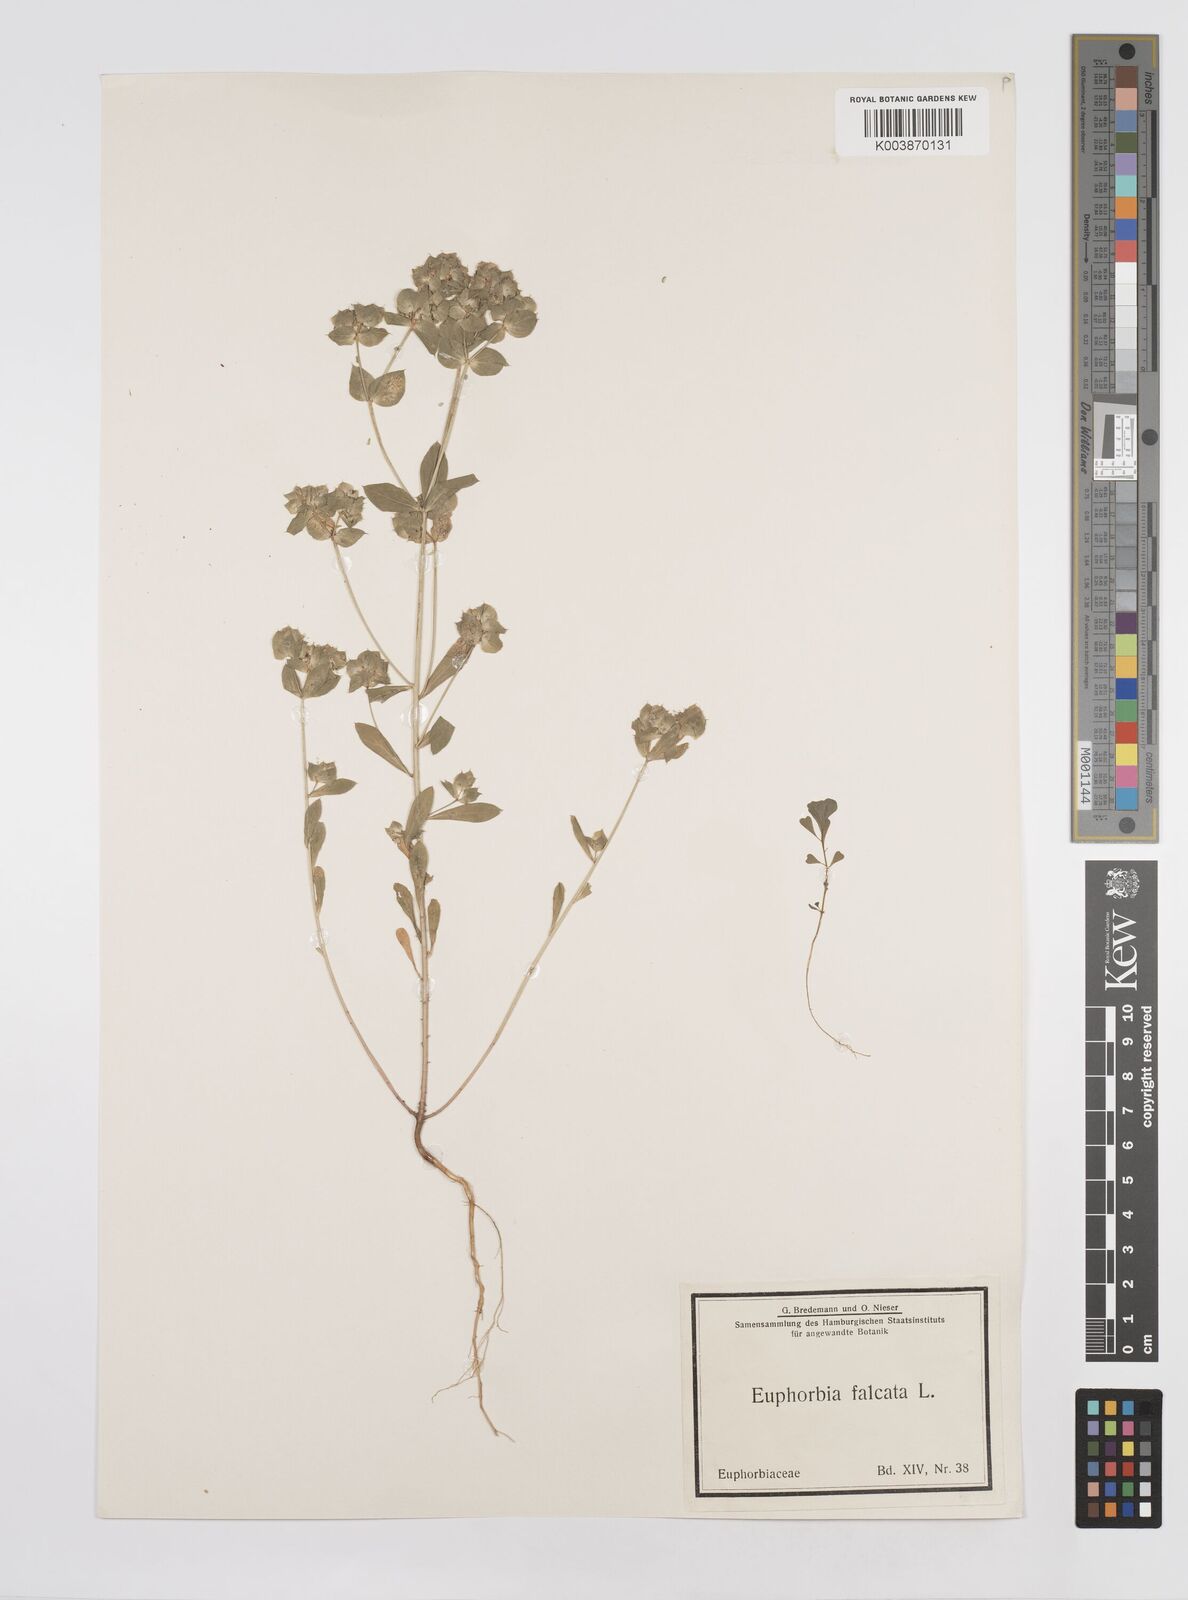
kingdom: Plantae
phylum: Tracheophyta
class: Magnoliopsida
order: Malpighiales
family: Euphorbiaceae
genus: Euphorbia
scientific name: Euphorbia falcata
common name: Sickle spurge
